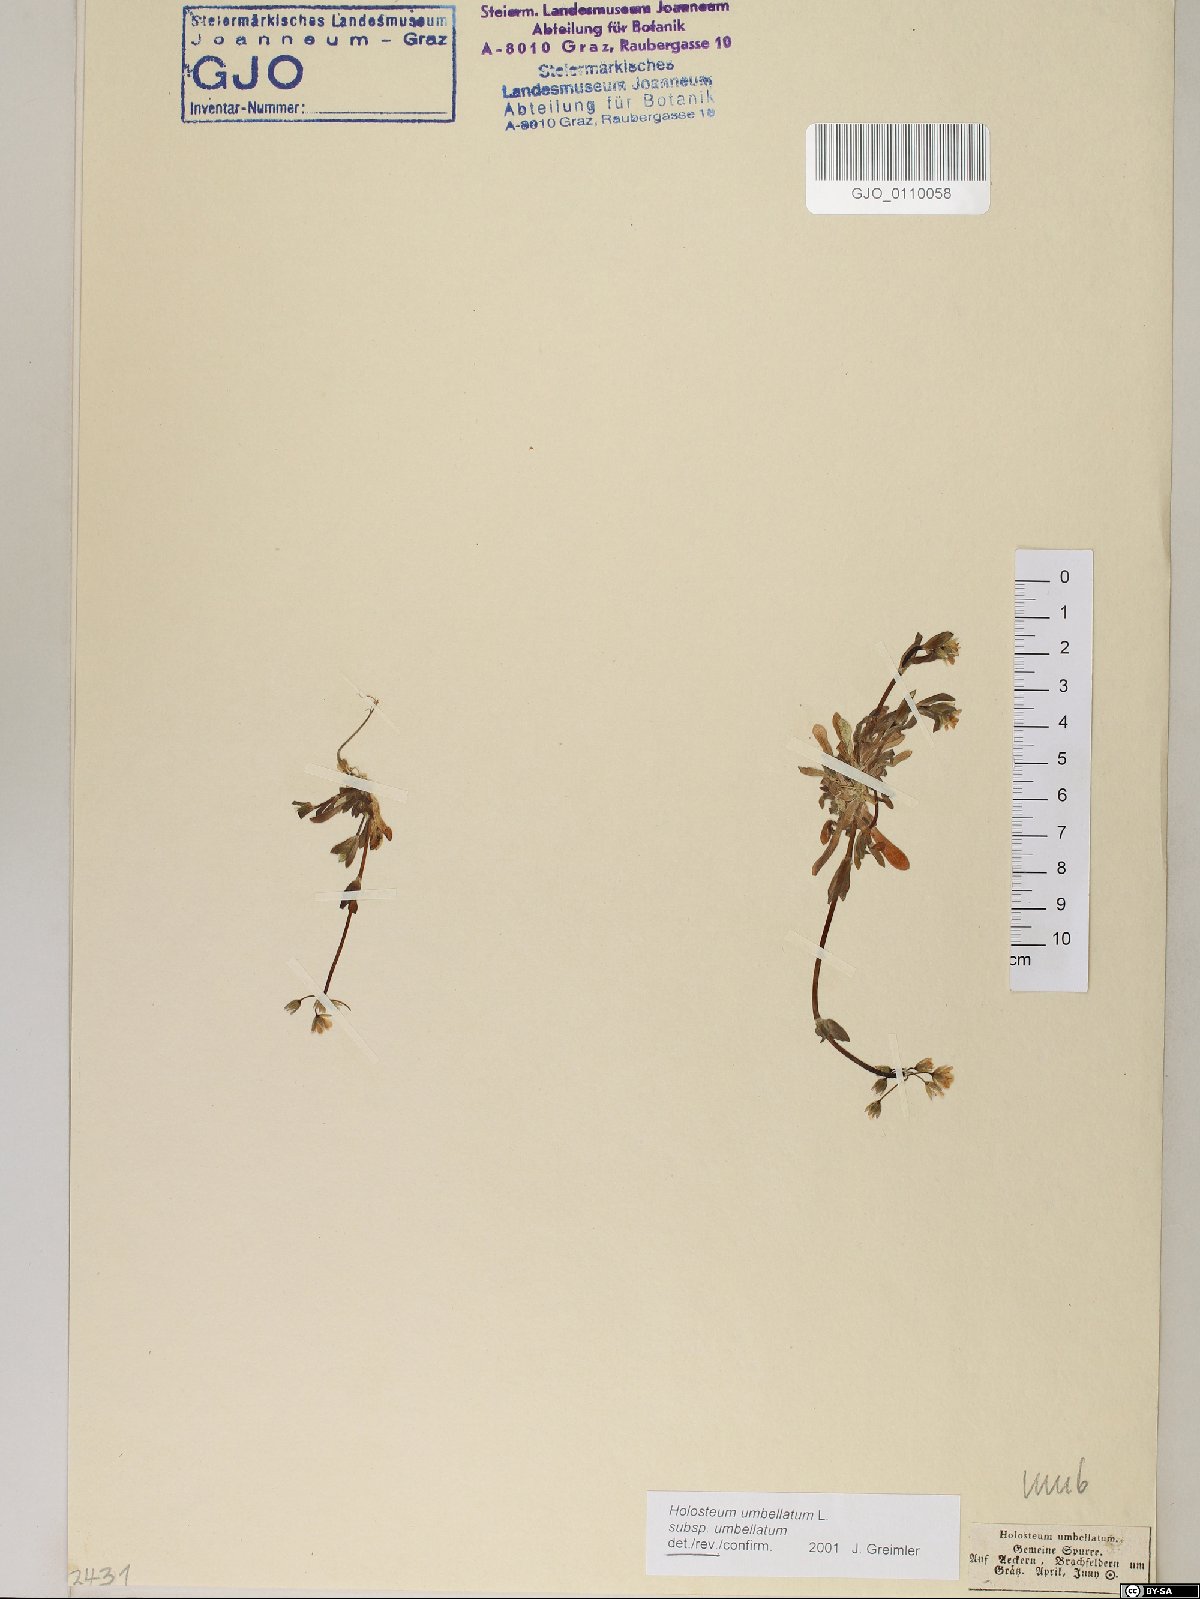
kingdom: Plantae
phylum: Tracheophyta
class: Magnoliopsida
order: Caryophyllales
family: Caryophyllaceae
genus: Holosteum
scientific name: Holosteum umbellatum
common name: Jagged chickweed
